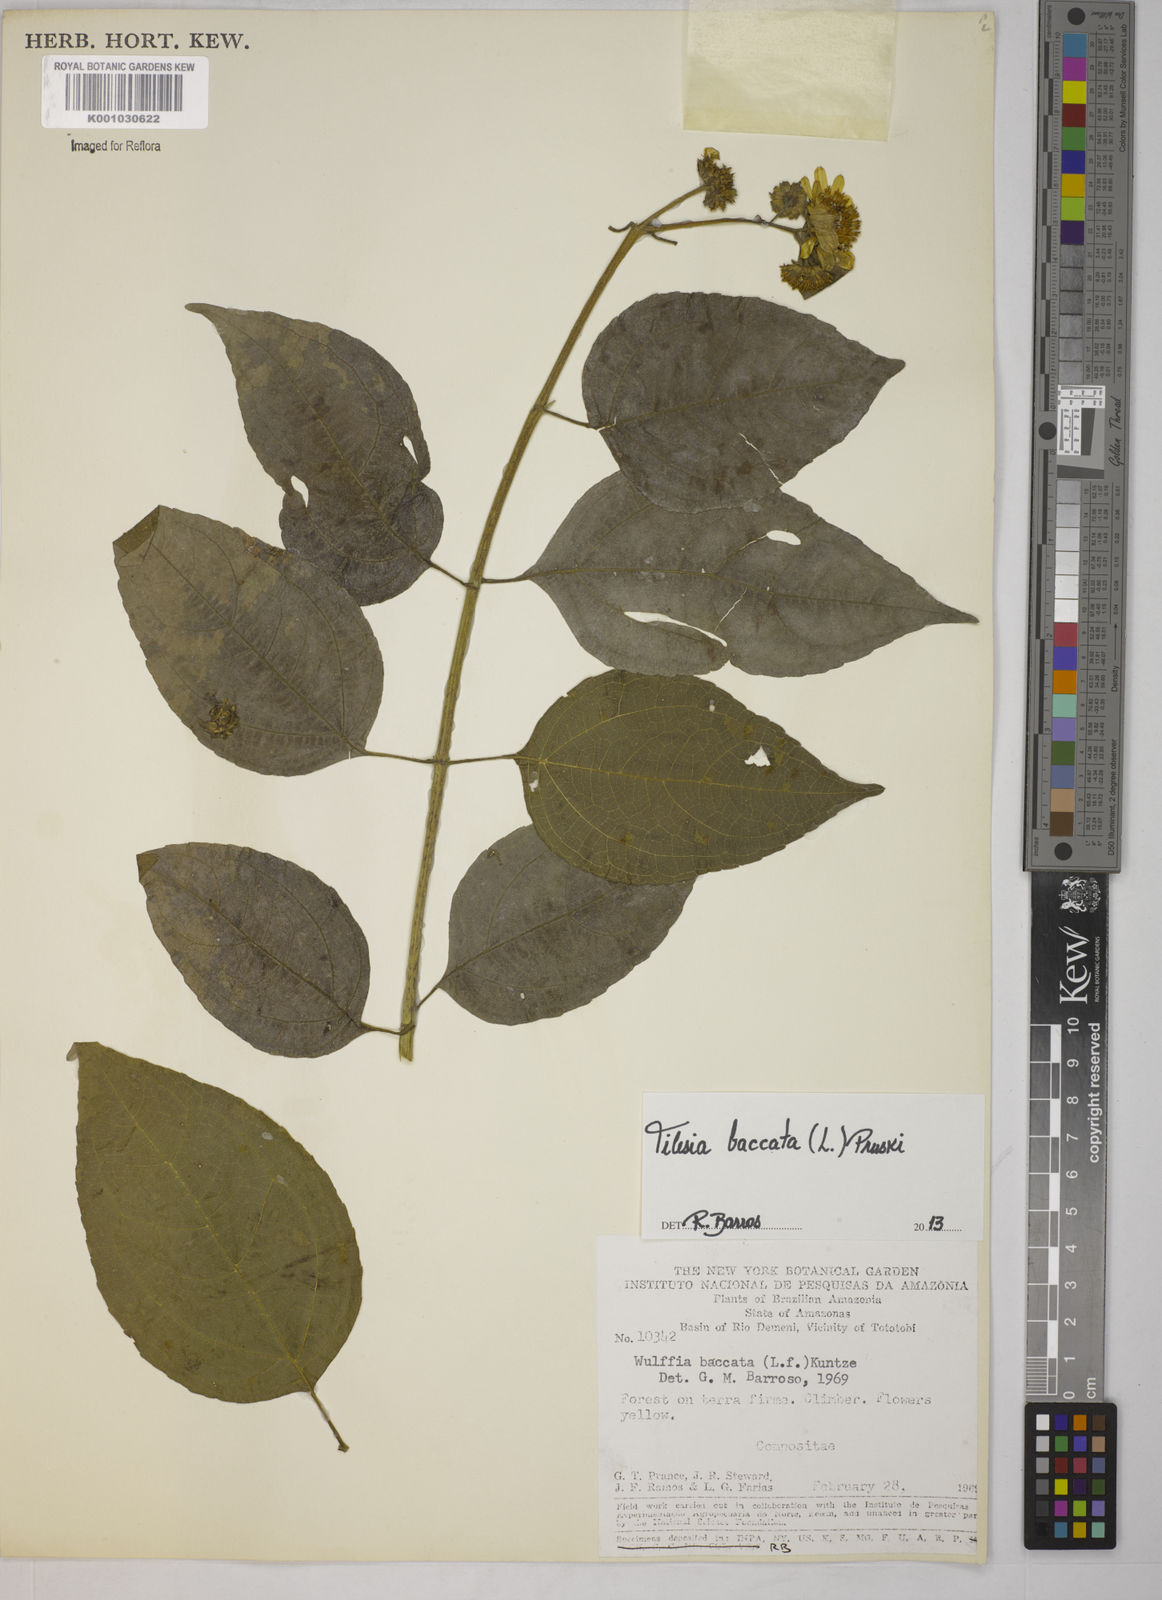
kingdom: Plantae
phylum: Tracheophyta
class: Magnoliopsida
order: Asterales
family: Asteraceae
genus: Tilesia
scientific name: Tilesia baccata
